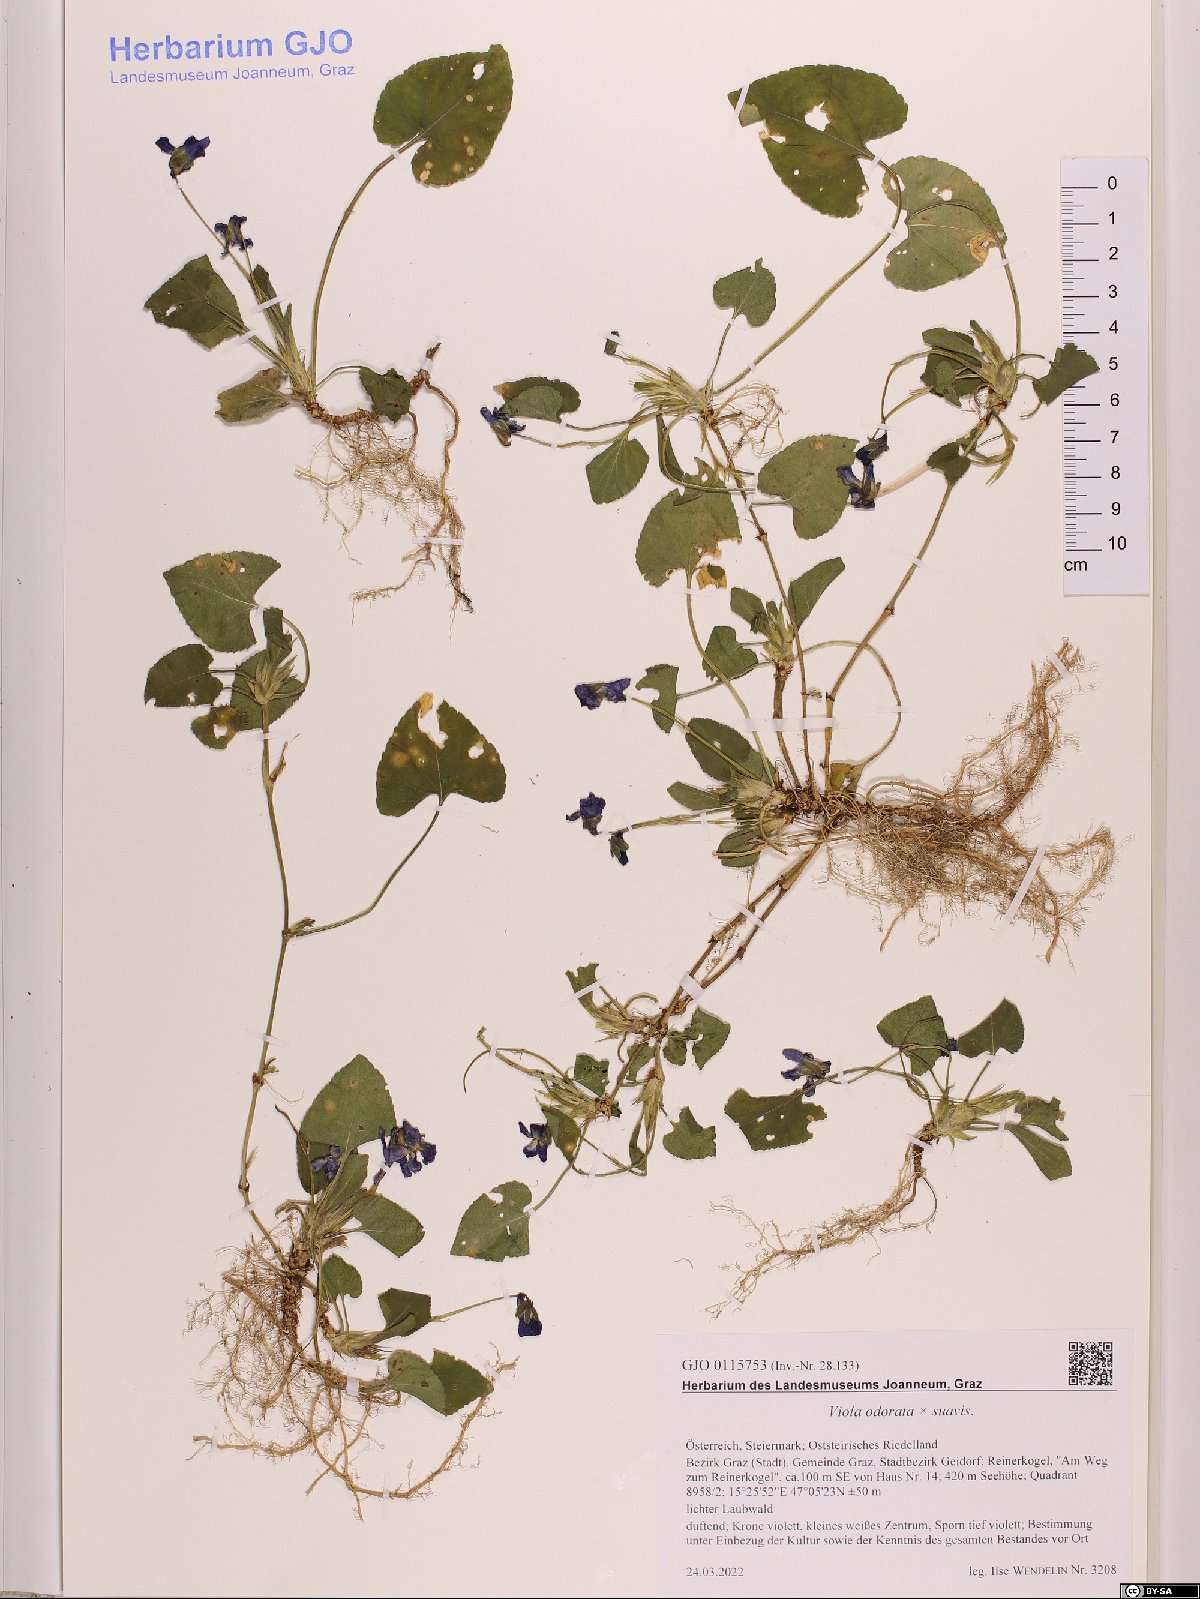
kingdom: Plantae
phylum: Tracheophyta
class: Magnoliopsida
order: Malpighiales
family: Violaceae
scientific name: Violaceae
